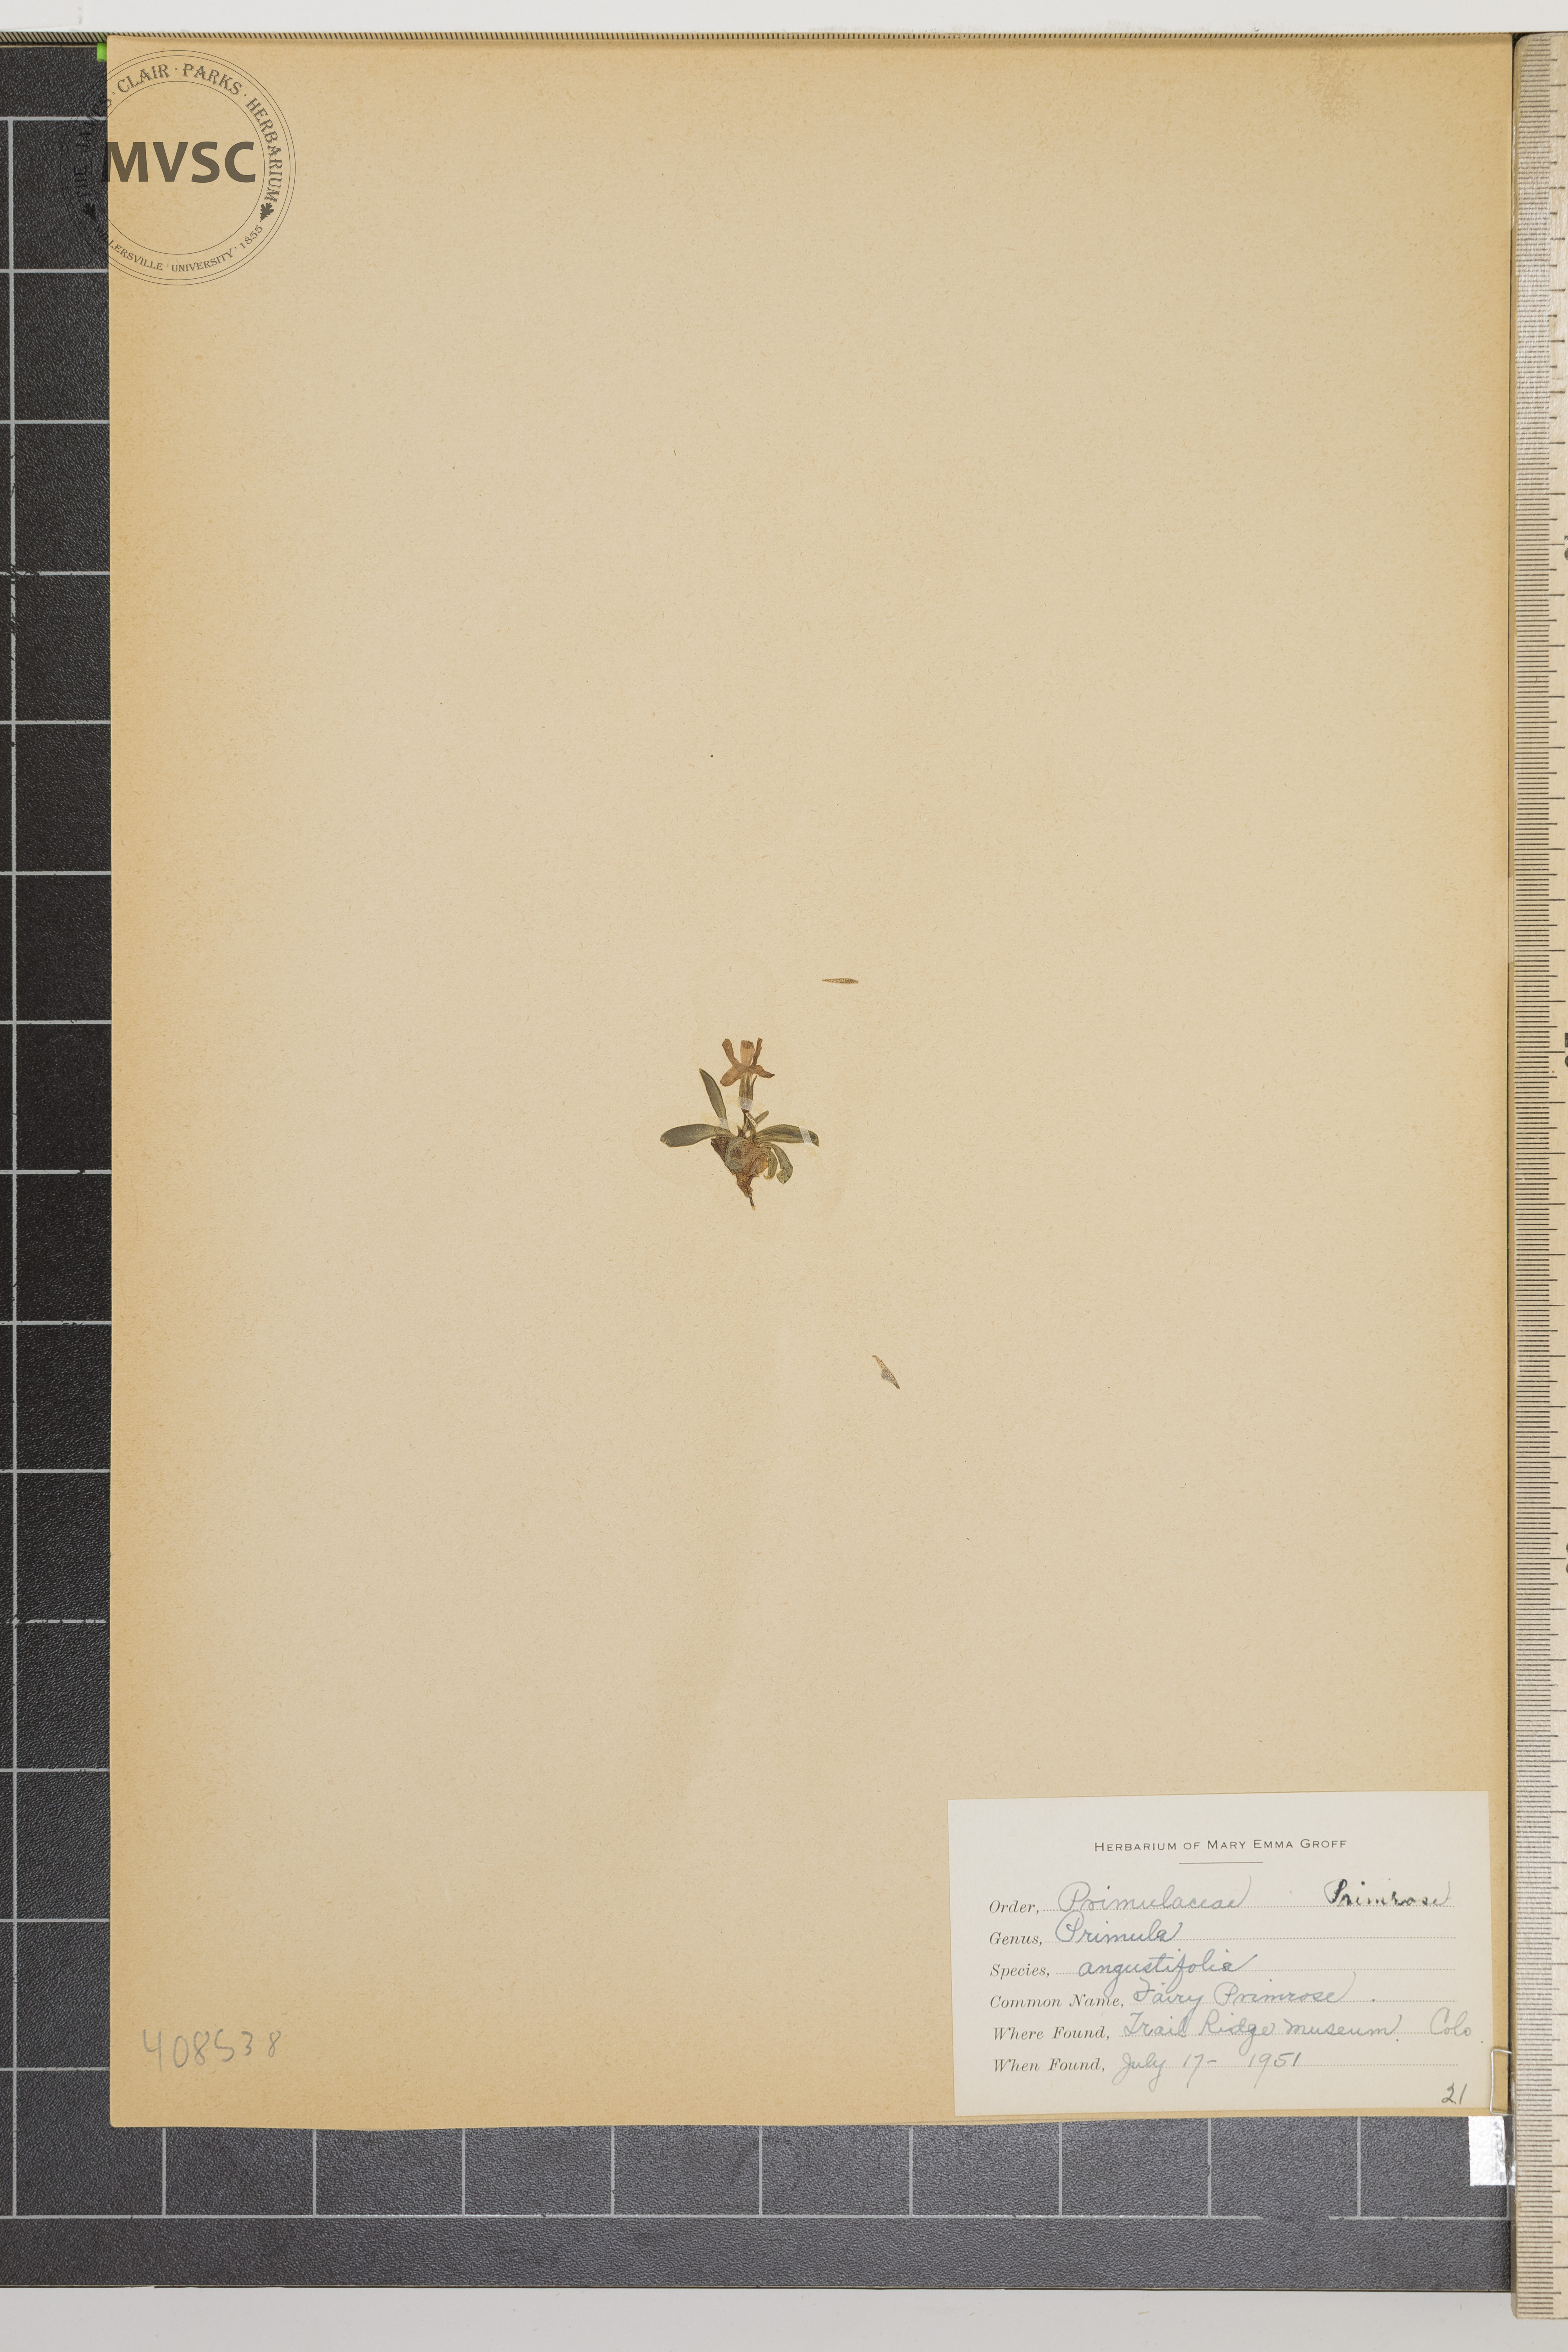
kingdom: Plantae
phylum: Tracheophyta
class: Magnoliopsida
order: Ericales
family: Primulaceae
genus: Primula
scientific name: Primula angustifolia
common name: Fairy Primrose
